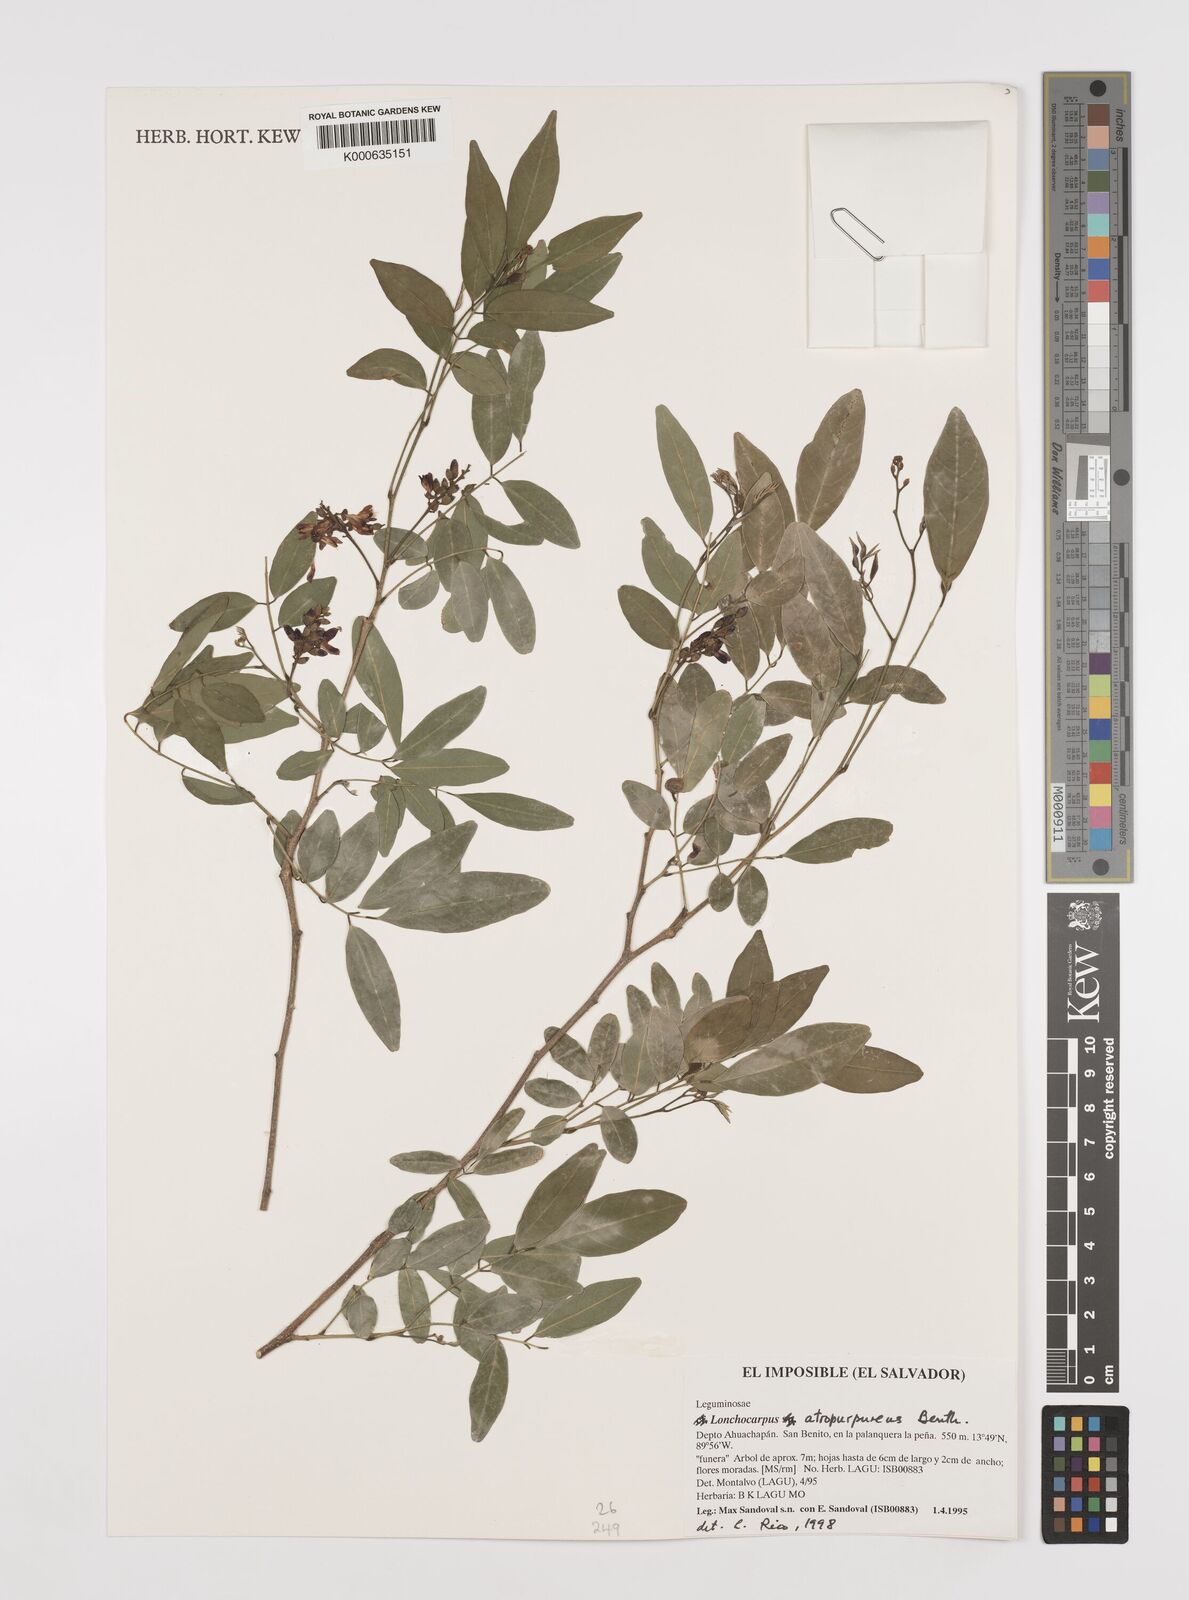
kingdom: Plantae
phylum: Tracheophyta
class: Magnoliopsida
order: Fabales
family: Fabaceae
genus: Lonchocarpus
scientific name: Lonchocarpus atropurpureus
